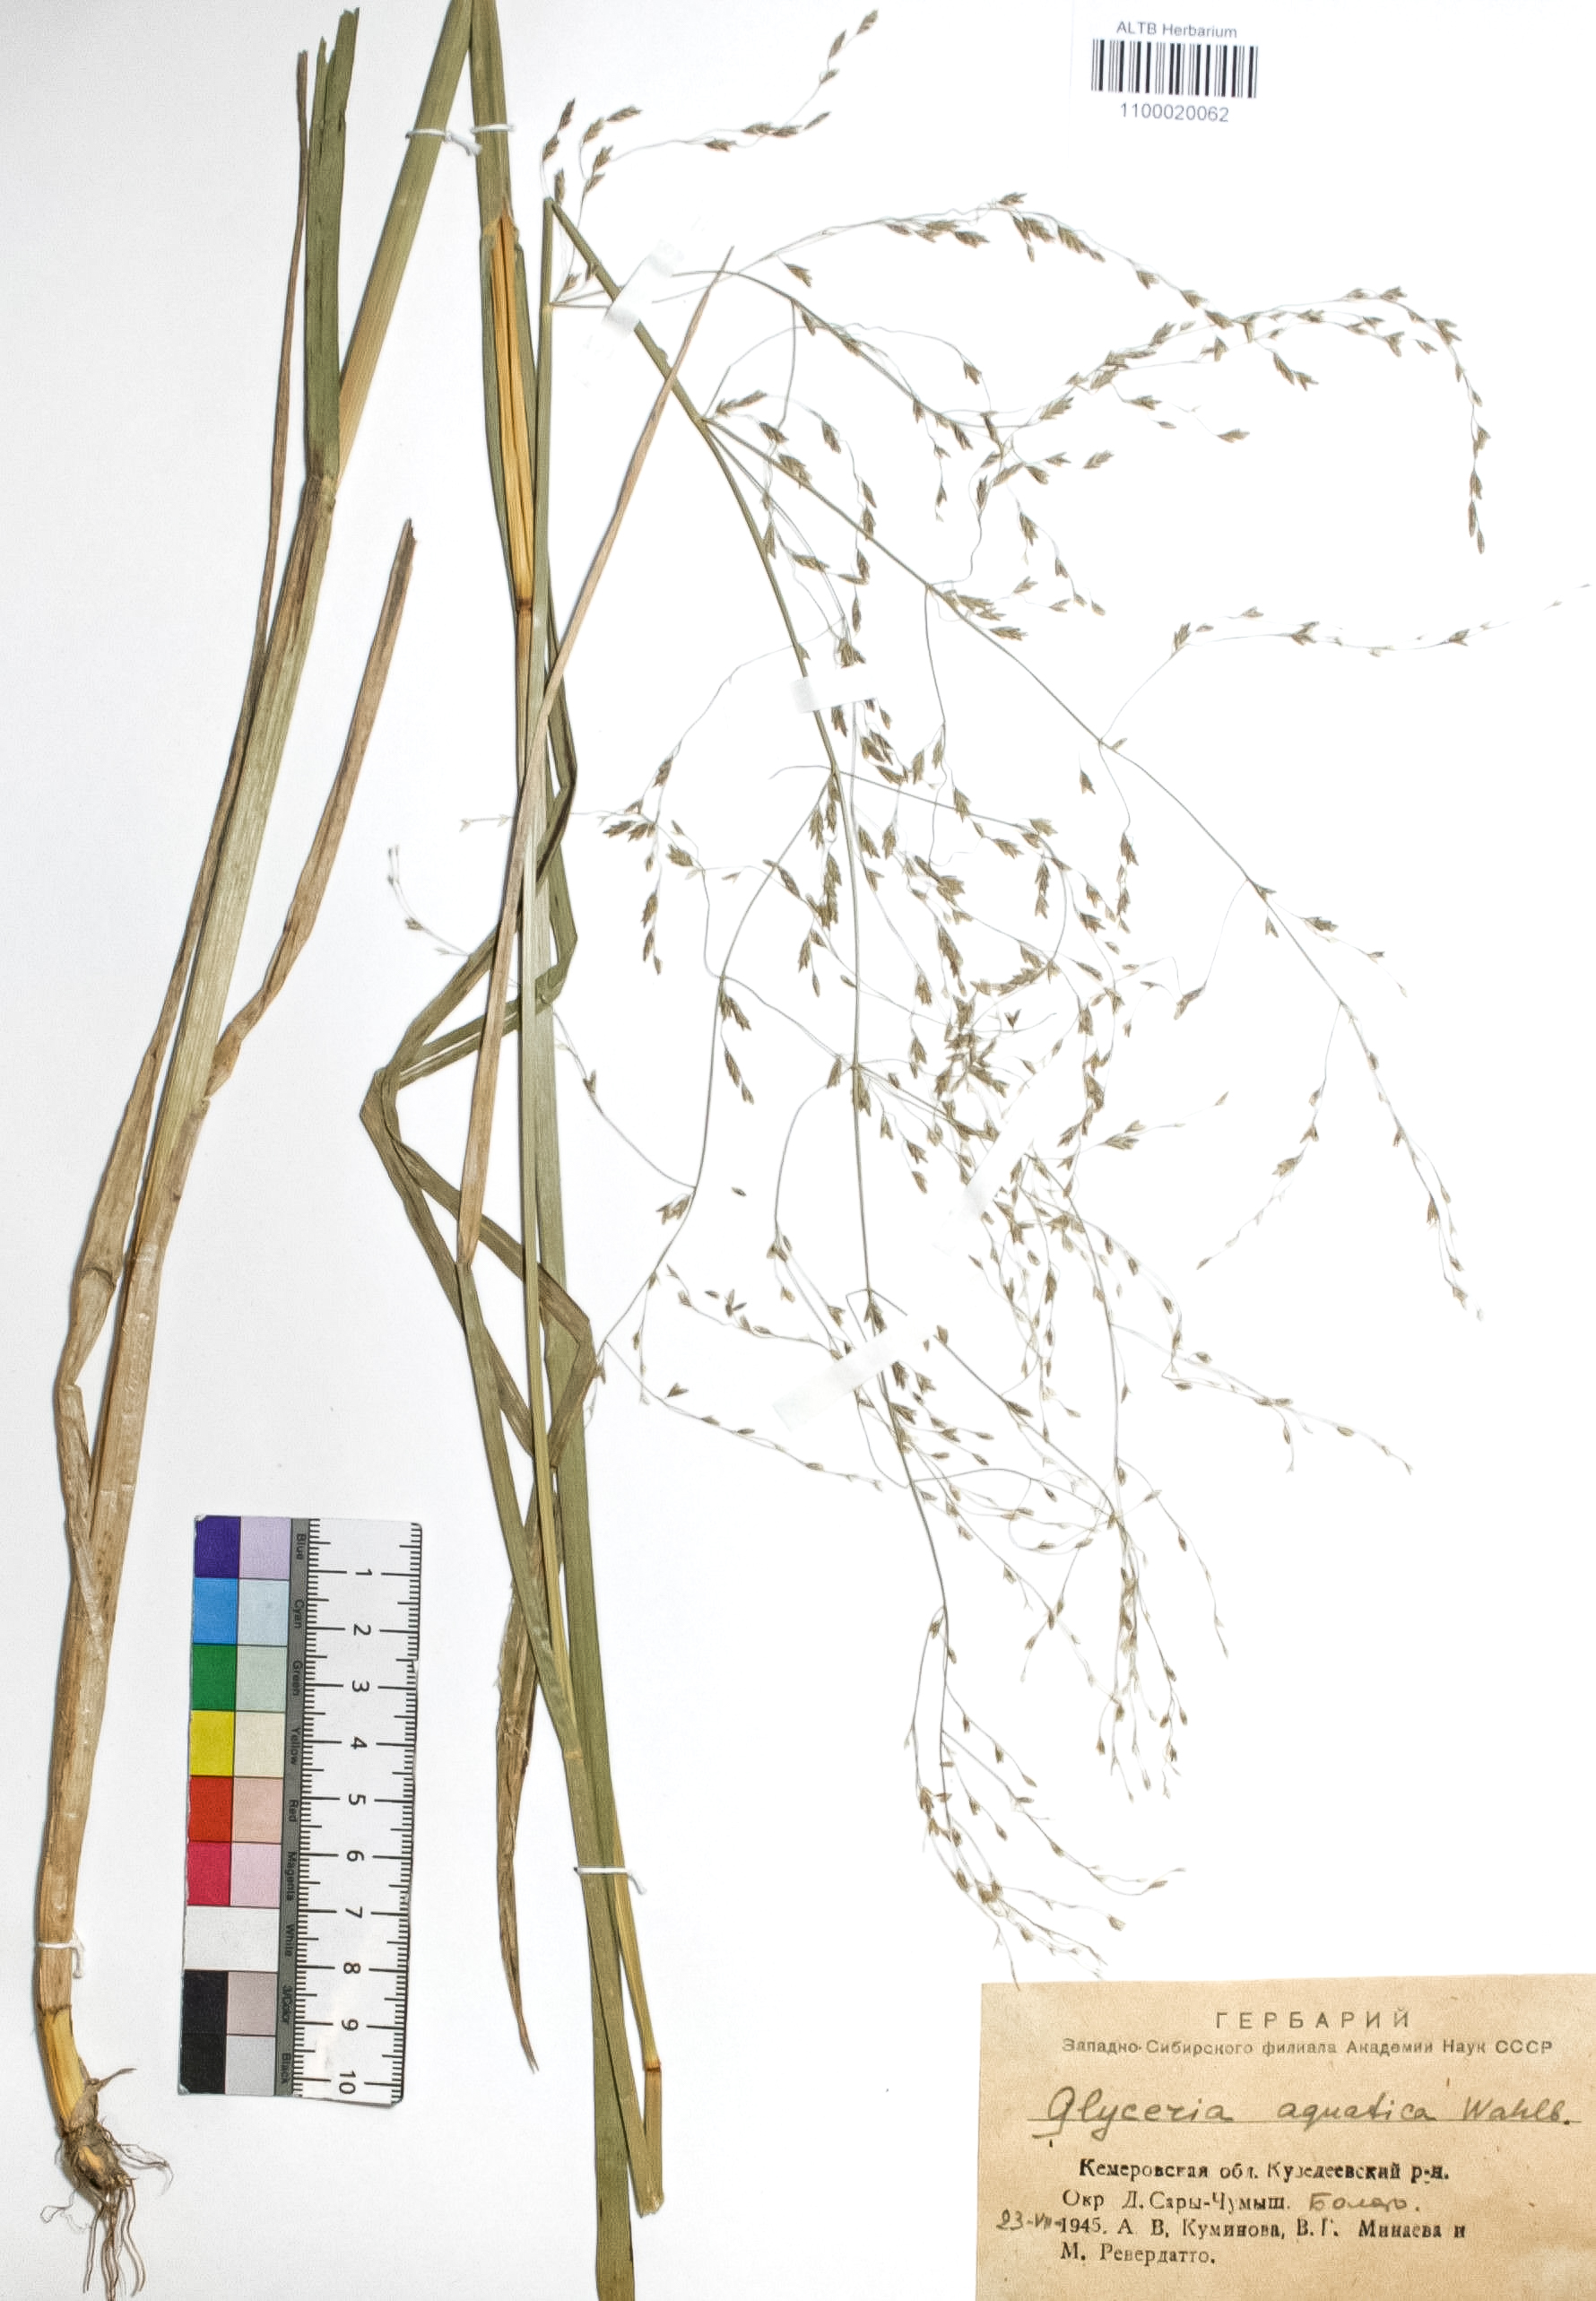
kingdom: Plantae
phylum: Tracheophyta
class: Liliopsida
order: Poales
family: Poaceae
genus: Glyceria
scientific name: Glyceria maxima
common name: Reed mannagrass
